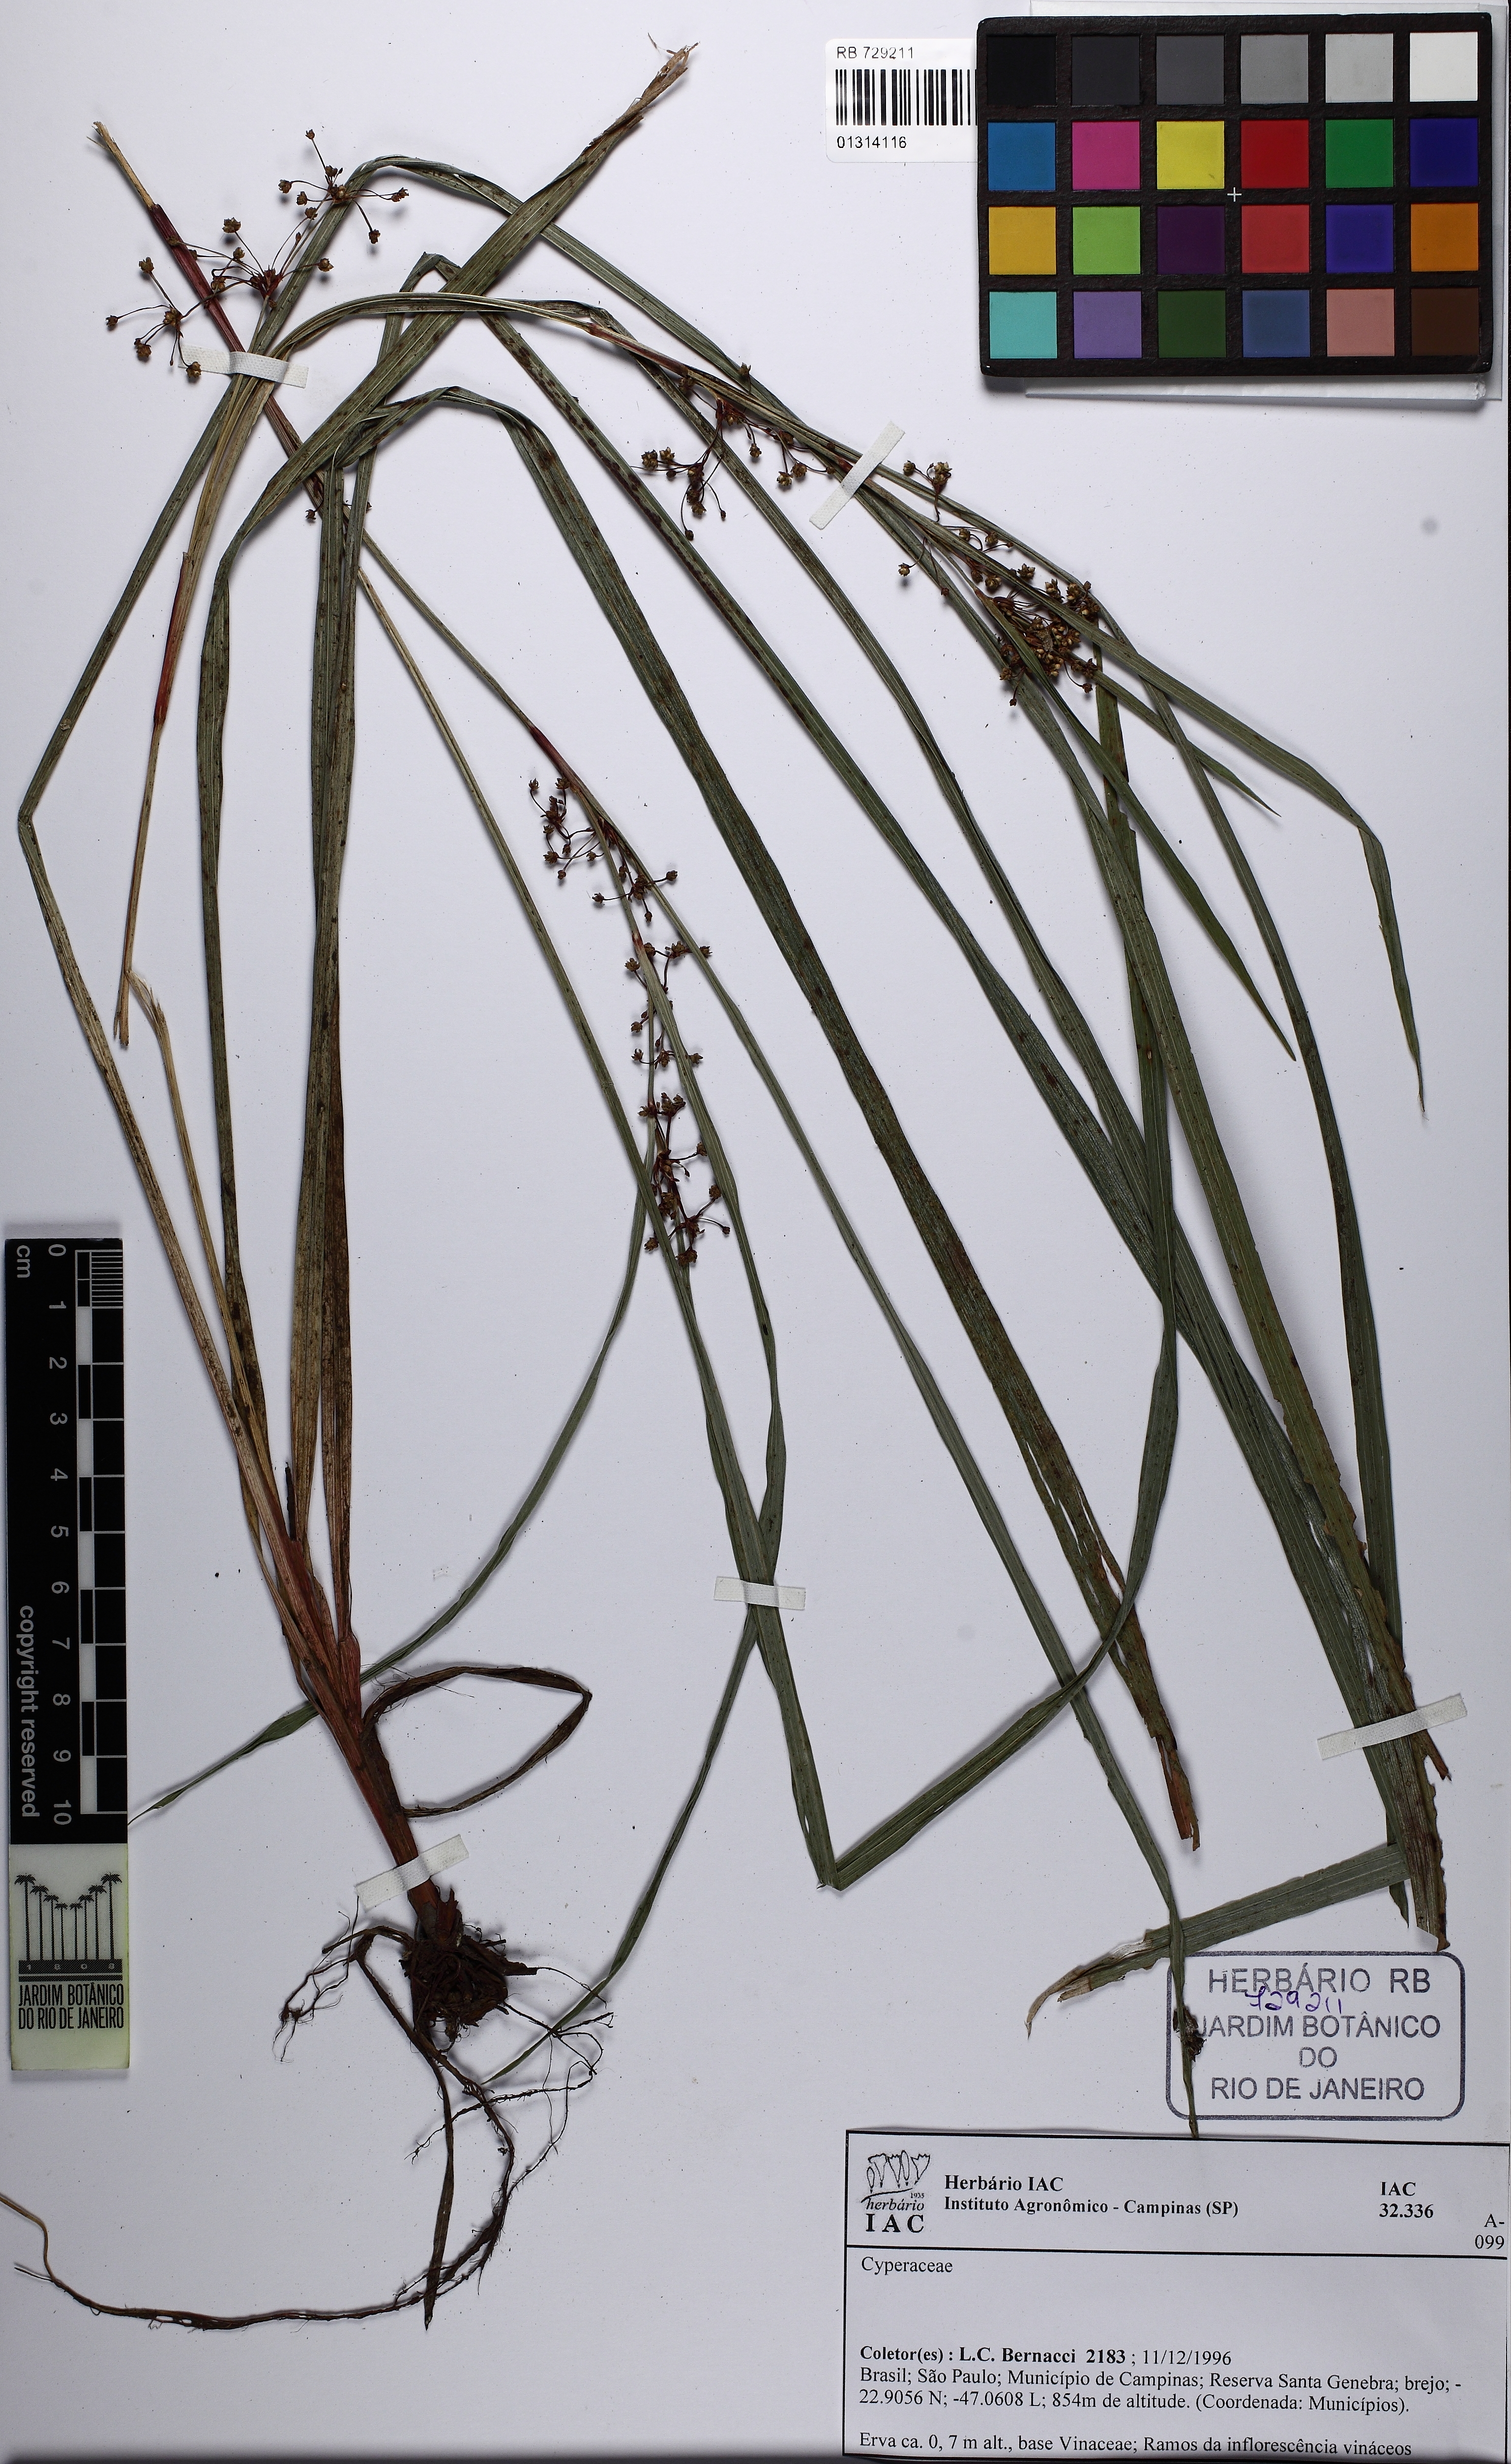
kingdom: Plantae
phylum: Tracheophyta
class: Liliopsida
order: Poales
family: Cyperaceae
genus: Calyptrocarya
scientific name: Calyptrocarya glomerulata
